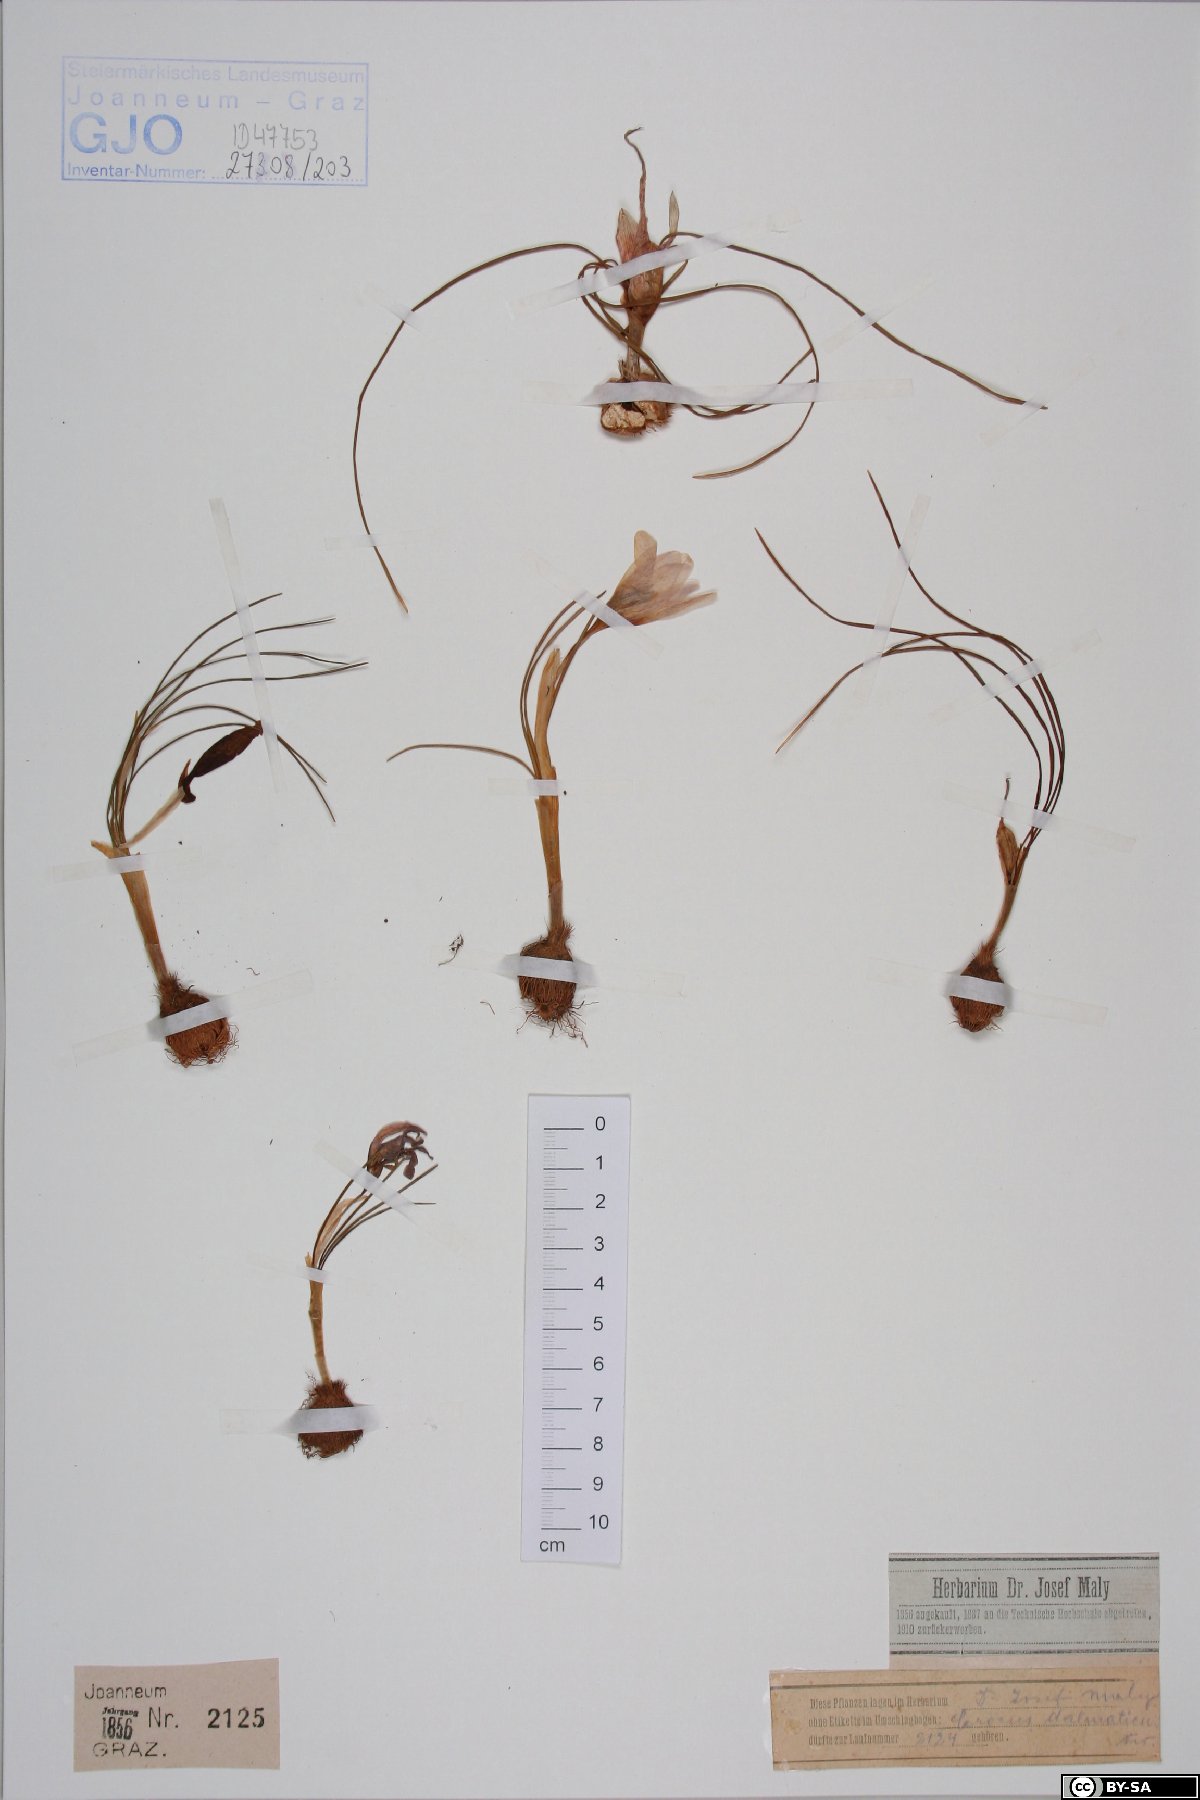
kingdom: Plantae
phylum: Tracheophyta
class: Liliopsida
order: Asparagales
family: Iridaceae
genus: Crocus
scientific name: Crocus dalmaticus
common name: Dalmatian saffron
